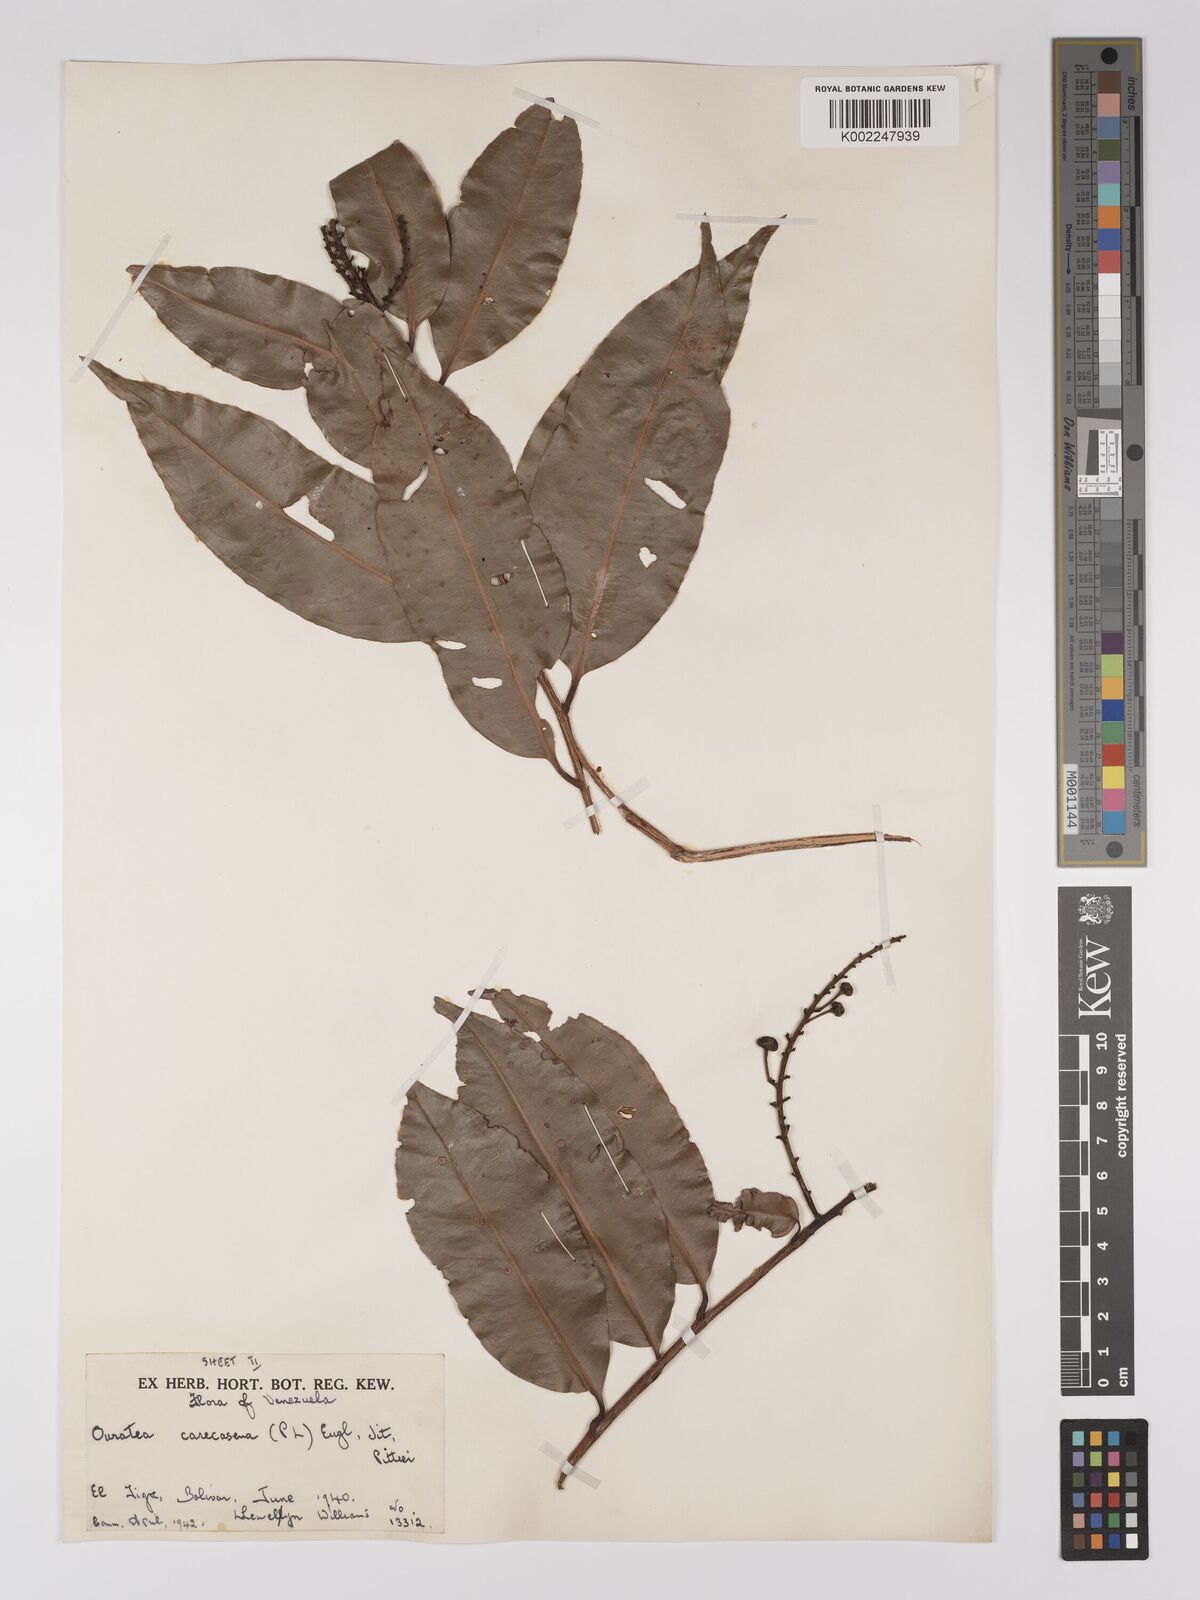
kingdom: Plantae
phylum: Tracheophyta
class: Magnoliopsida
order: Malpighiales
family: Ochnaceae
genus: Ouratea
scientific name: Ouratea caracasana
